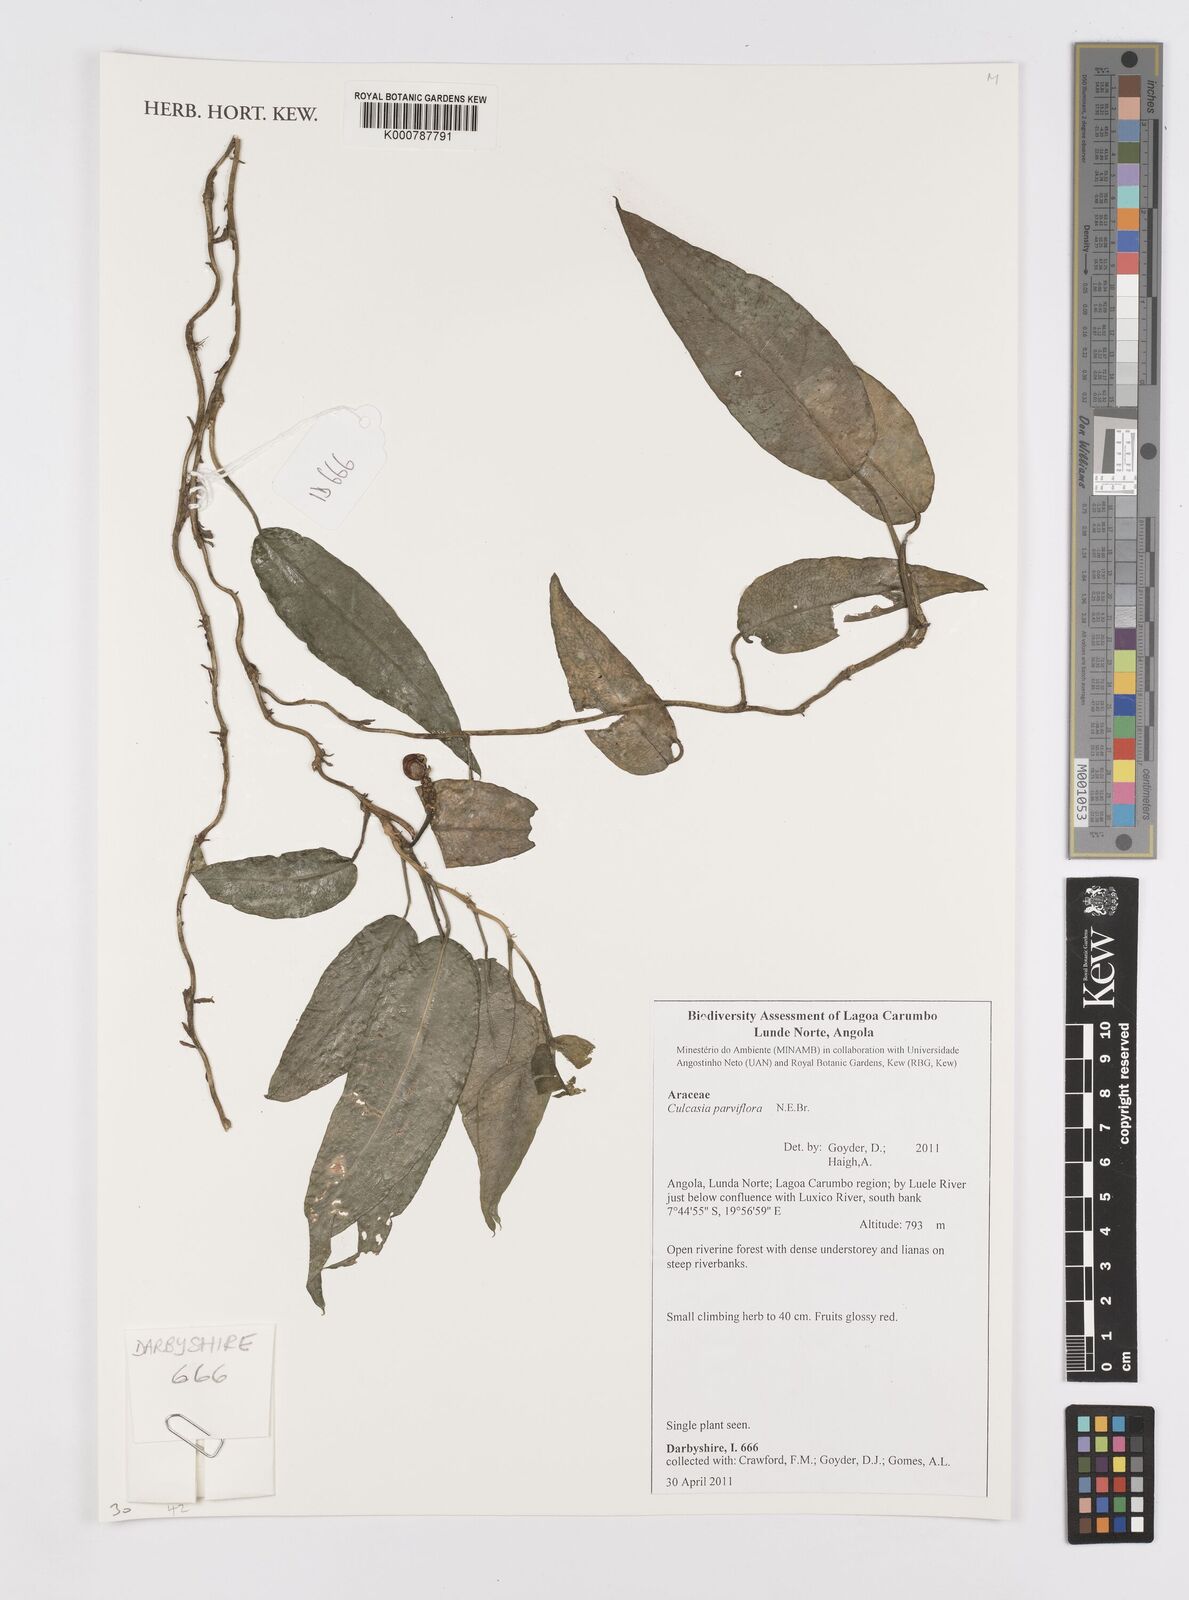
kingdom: Plantae
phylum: Tracheophyta
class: Liliopsida
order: Alismatales
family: Araceae
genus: Culcasia
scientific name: Culcasia parviflora
